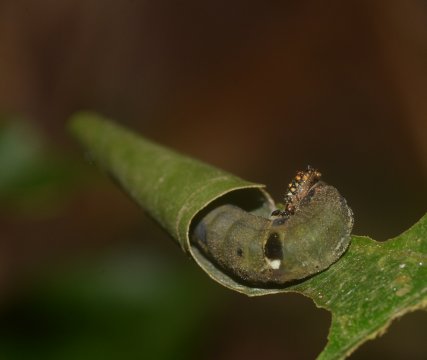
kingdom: Animalia
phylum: Arthropoda
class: Insecta
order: Lepidoptera
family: Nymphalidae
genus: Memphis
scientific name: Memphis artacaena
